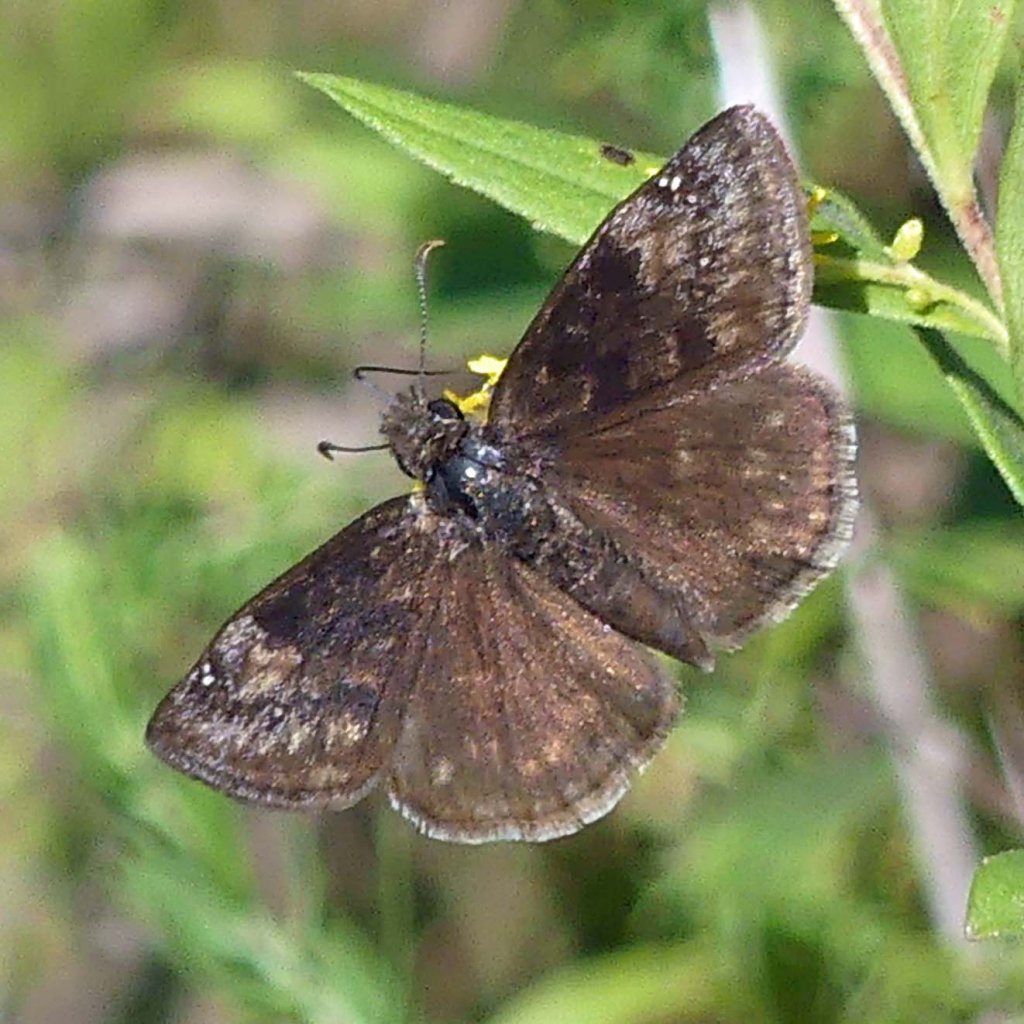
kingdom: Animalia
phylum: Arthropoda
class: Insecta
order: Lepidoptera
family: Hesperiidae
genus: Gesta
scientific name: Gesta
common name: Wild Indigo Duskywing
